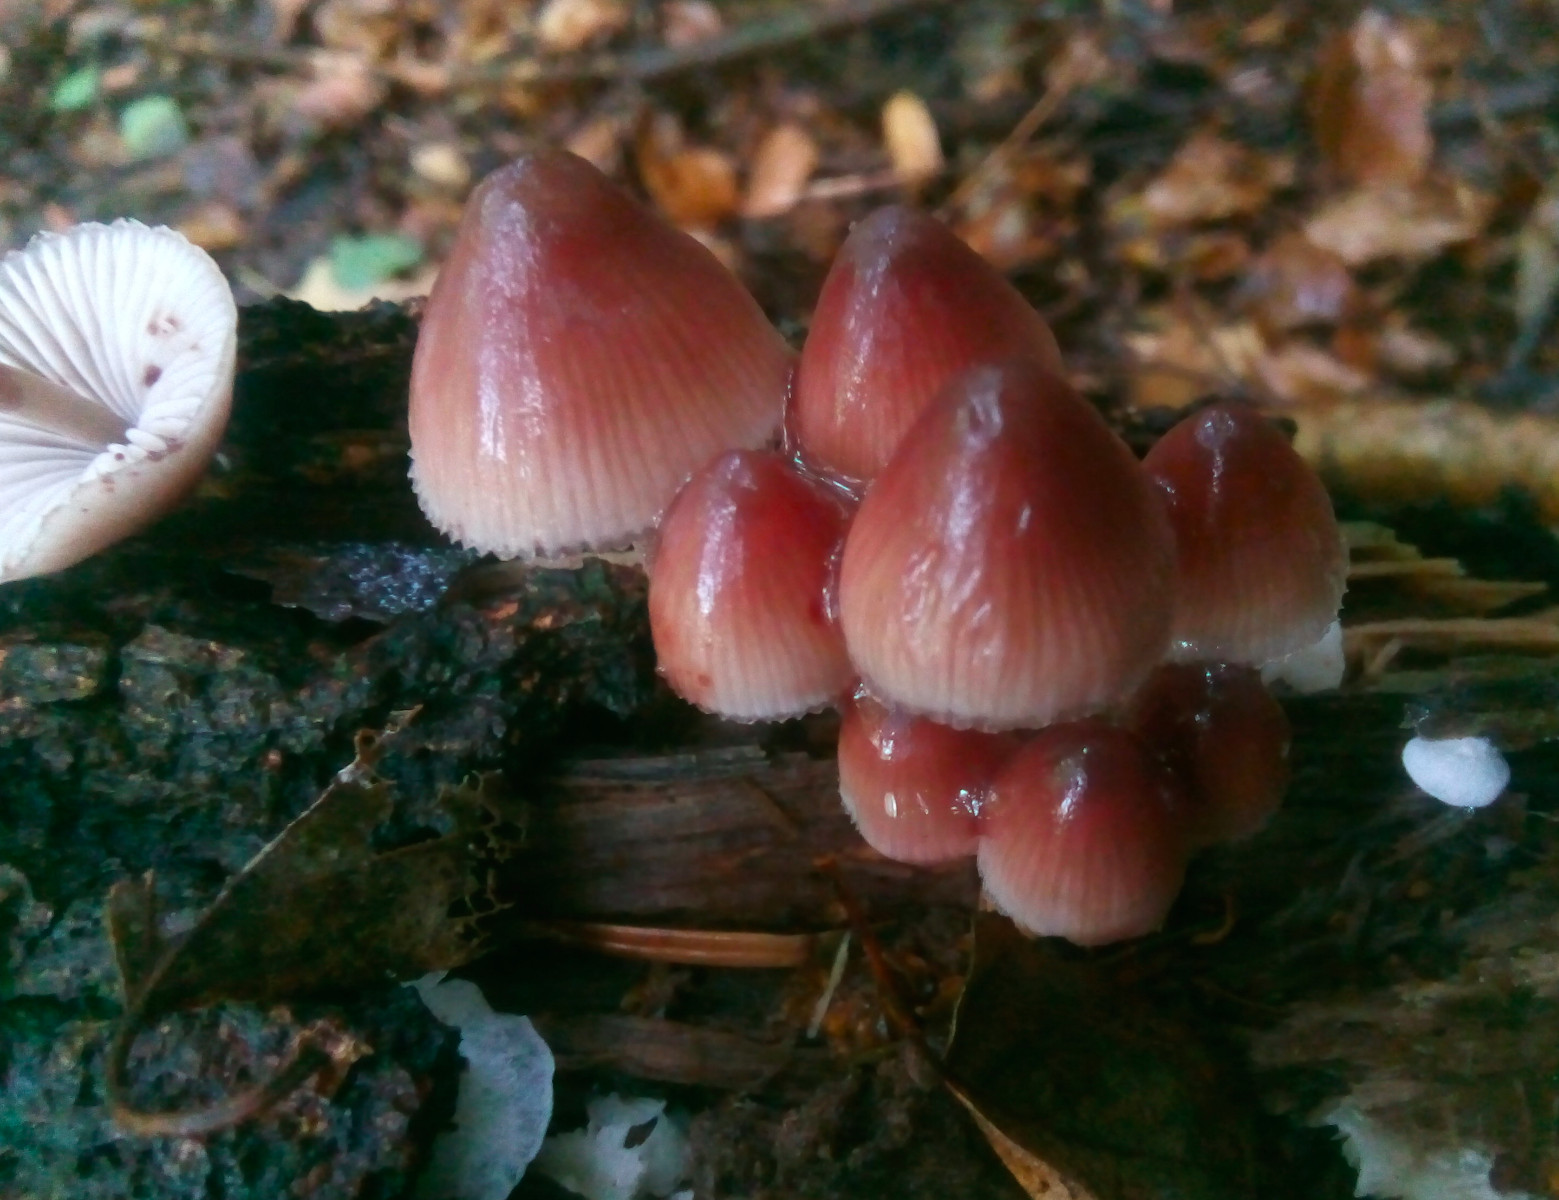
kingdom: Fungi
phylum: Basidiomycota
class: Agaricomycetes
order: Agaricales
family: Mycenaceae
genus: Mycena
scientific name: Mycena haematopus
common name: blødende huesvamp
